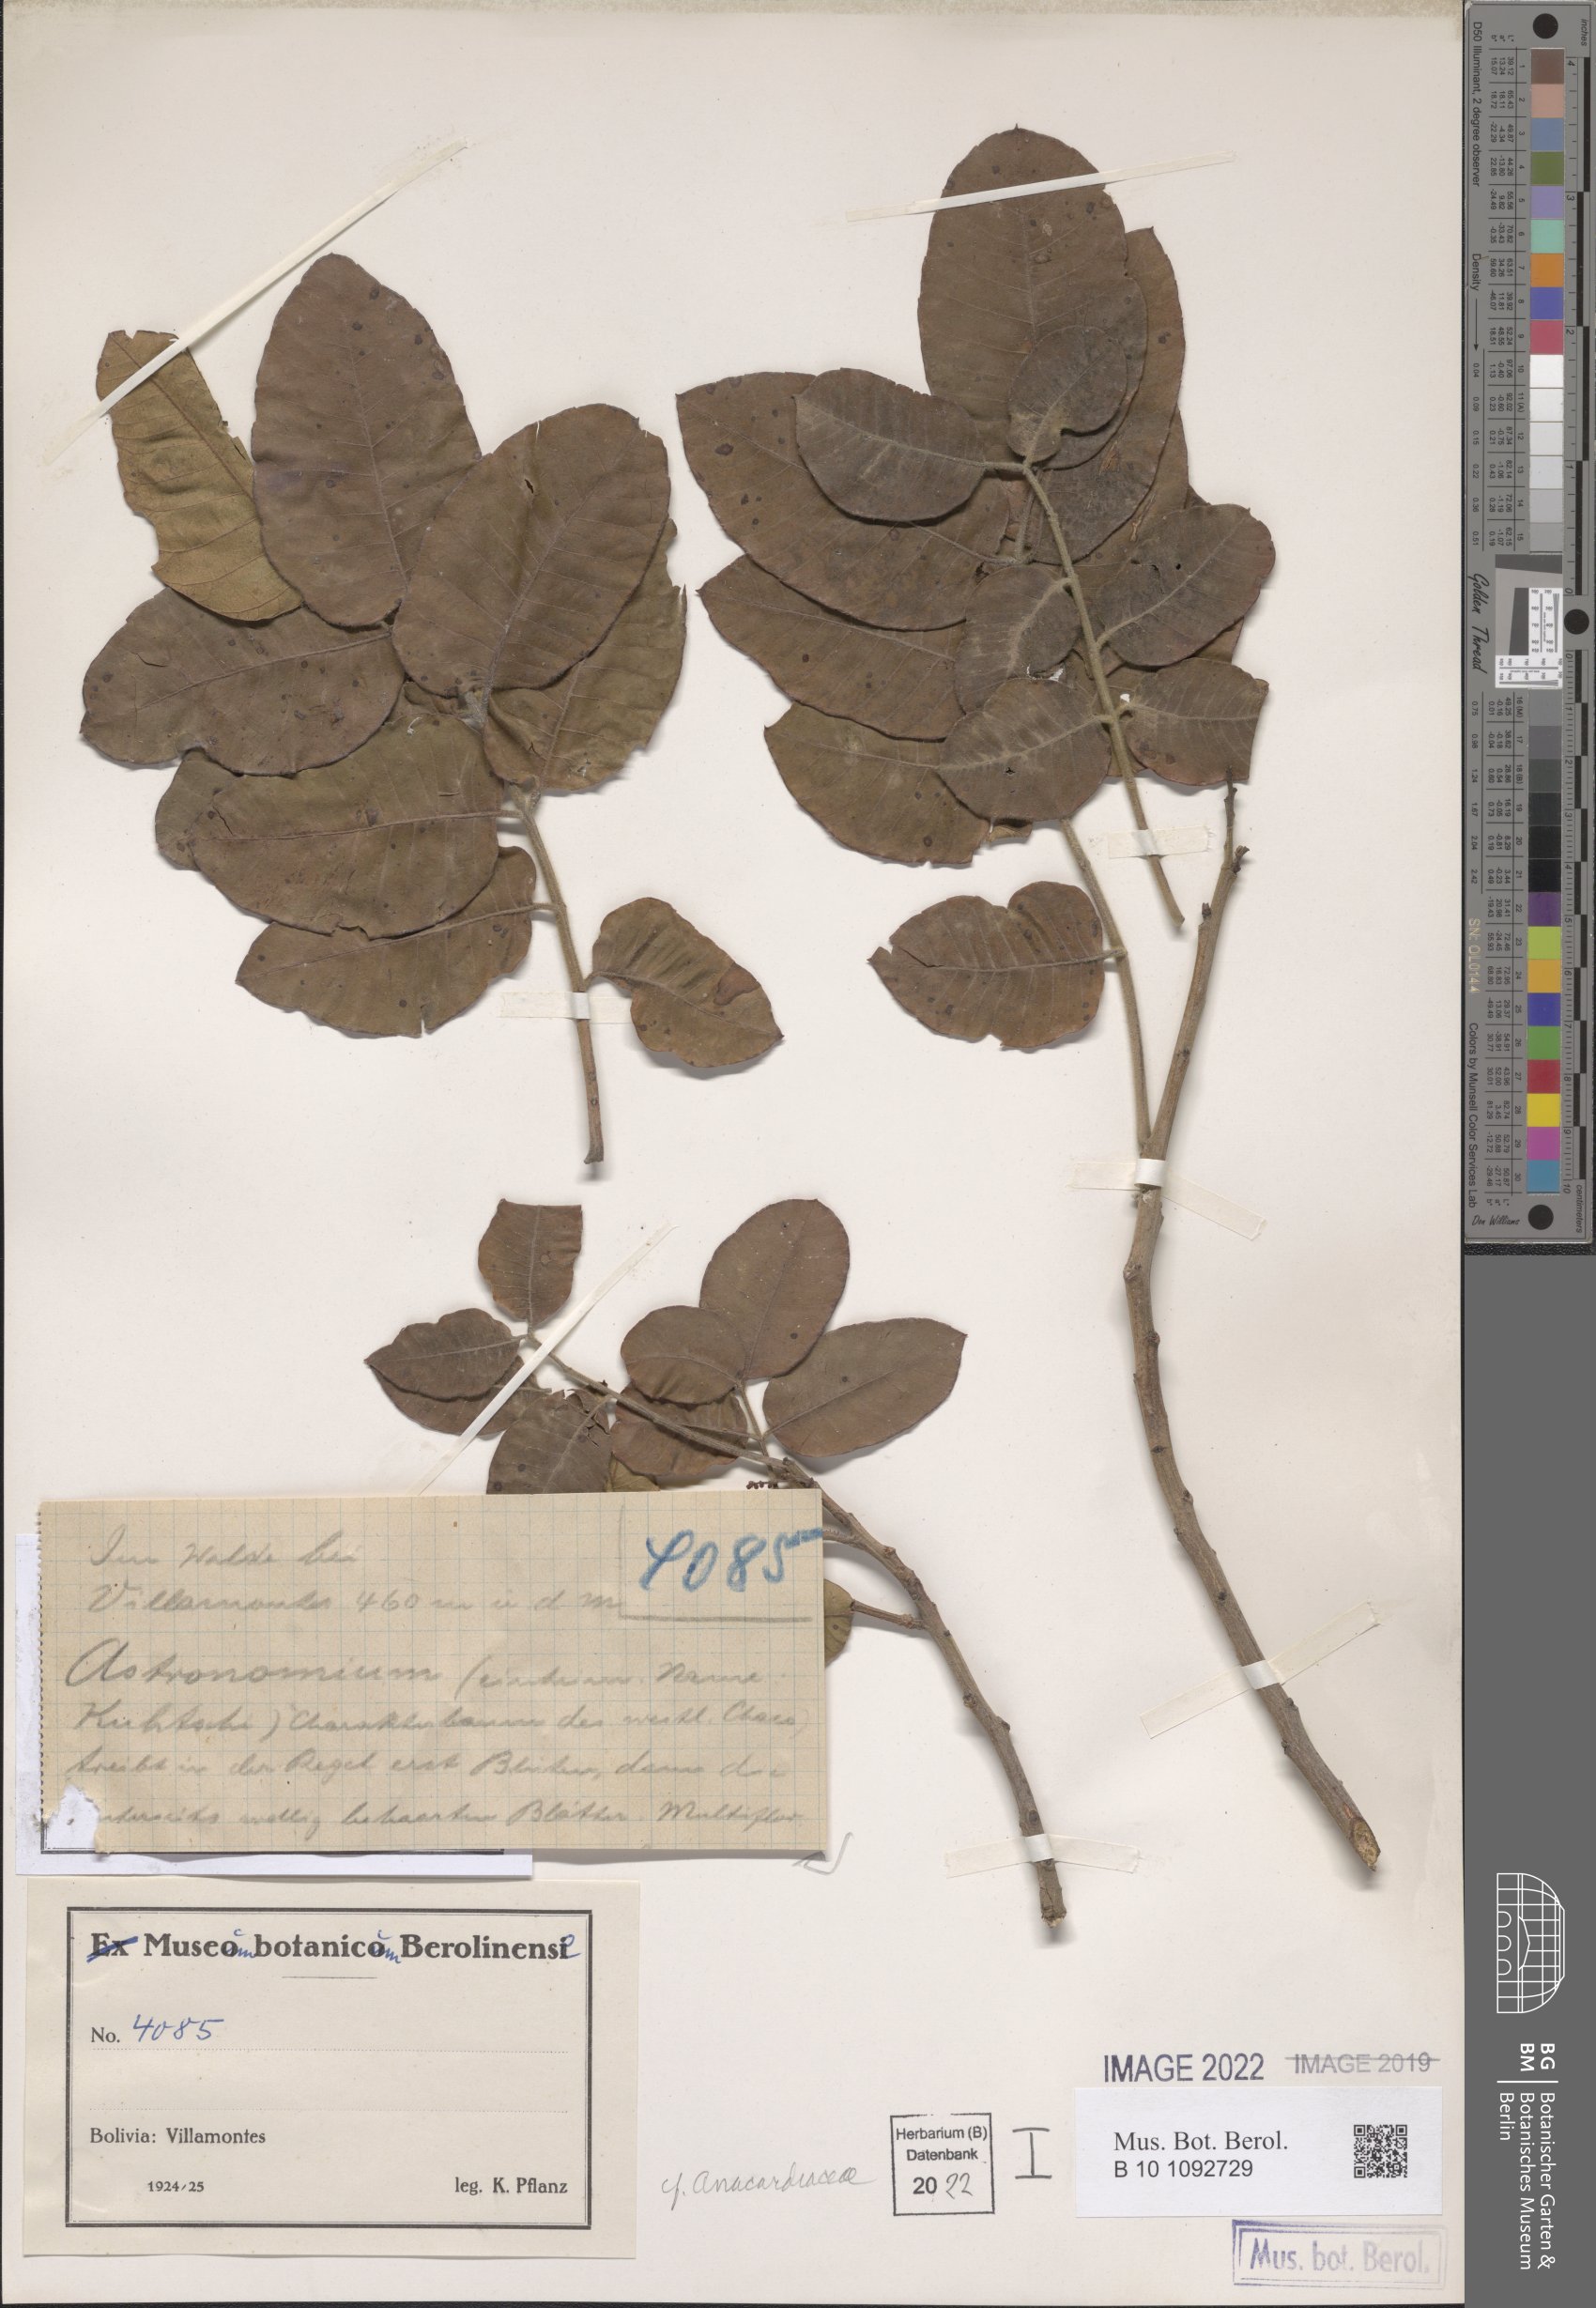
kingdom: Plantae
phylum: Tracheophyta
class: Magnoliopsida
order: Sapindales
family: Anacardiaceae
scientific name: Anacardiaceae
